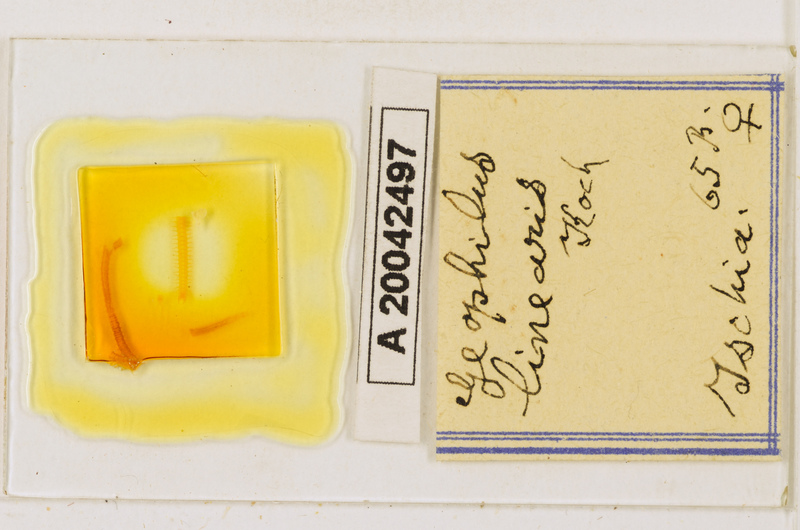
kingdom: Animalia
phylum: Arthropoda
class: Chilopoda
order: Geophilomorpha
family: Geophilidae
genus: Stenotaenia
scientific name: Stenotaenia linearis
